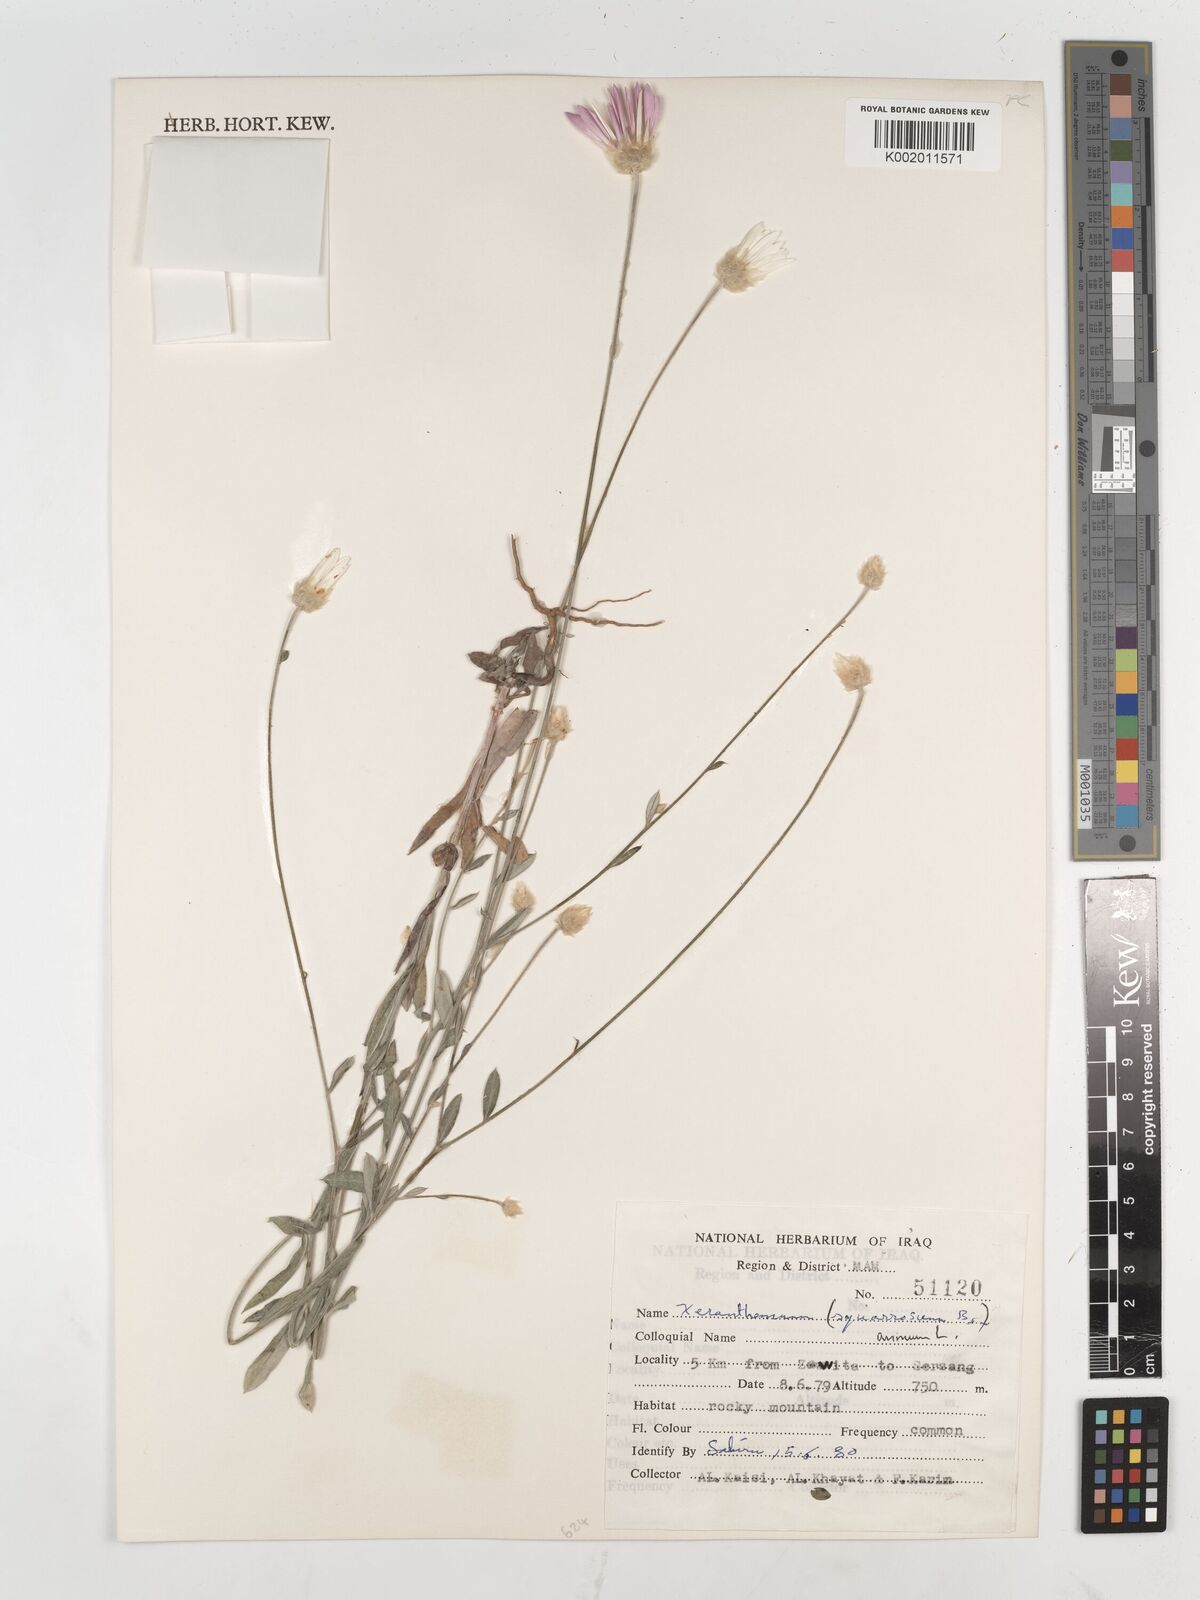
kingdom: Plantae
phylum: Tracheophyta
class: Magnoliopsida
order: Asterales
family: Asteraceae
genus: Xeranthemum
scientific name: Xeranthemum annuum
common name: Immortelle
